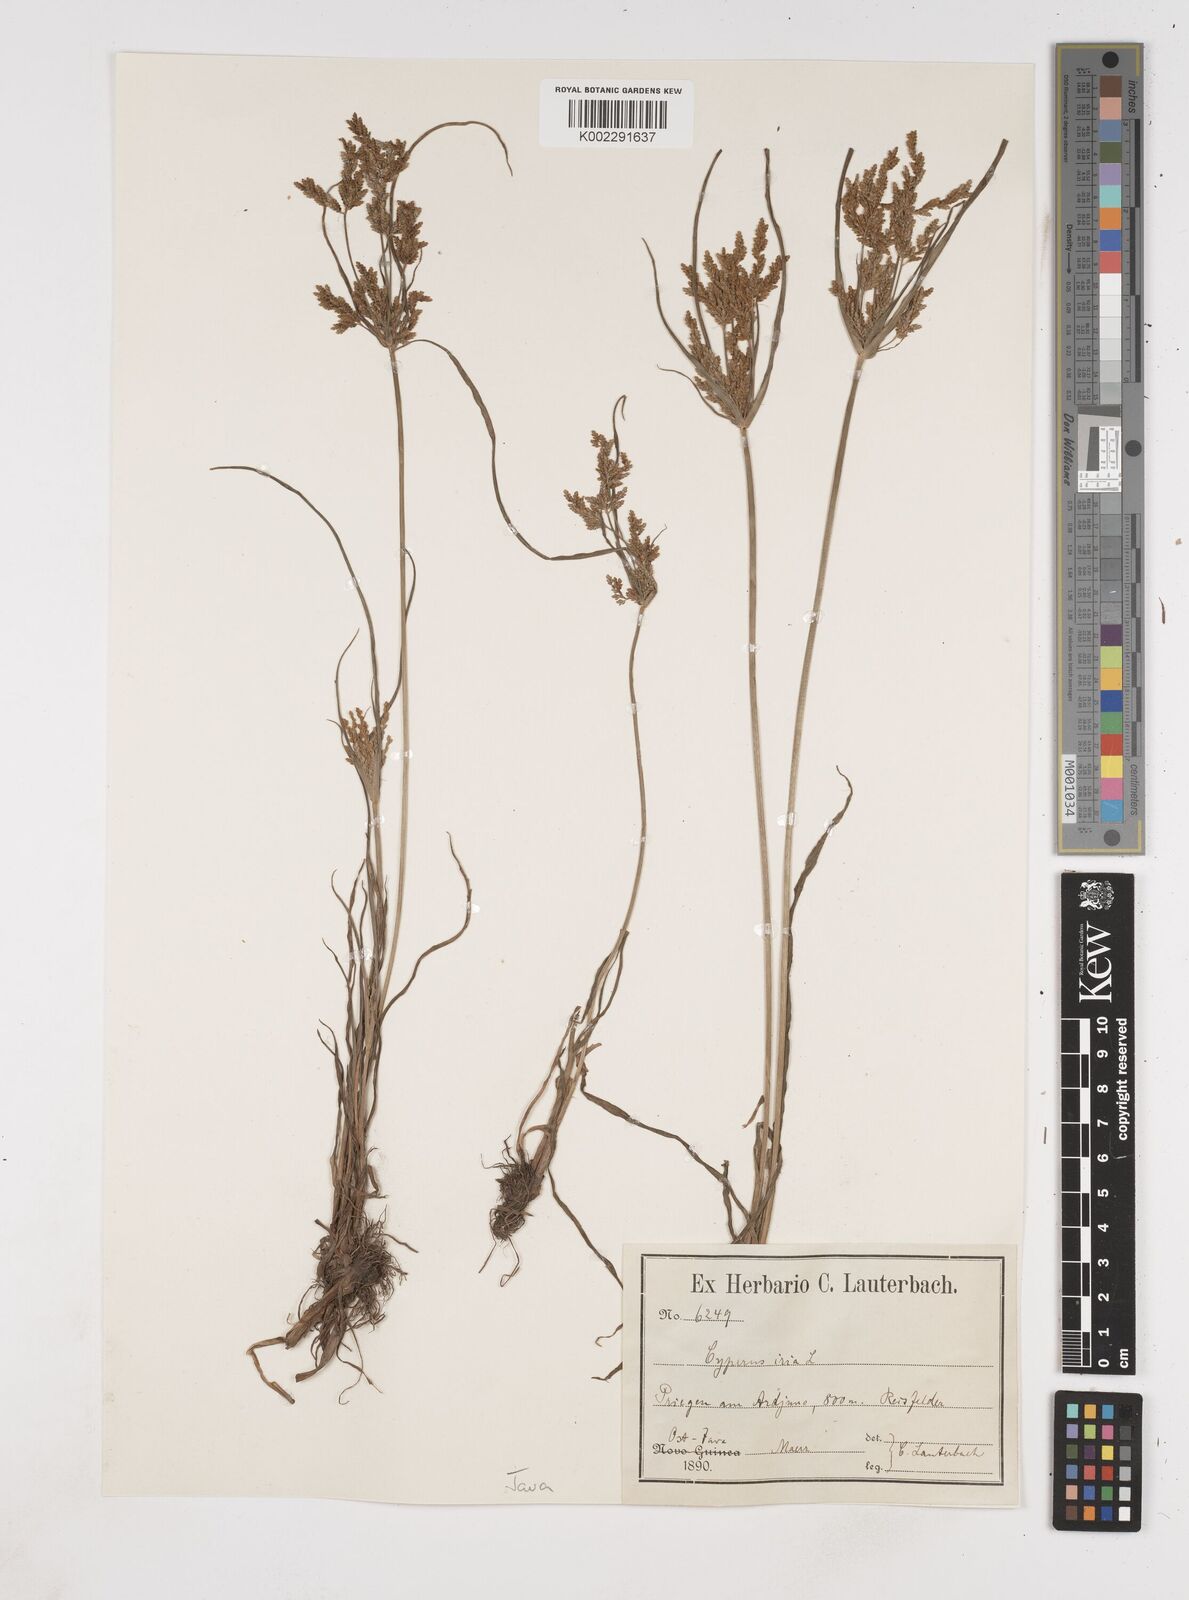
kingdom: Plantae
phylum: Tracheophyta
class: Liliopsida
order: Poales
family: Cyperaceae
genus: Cyperus
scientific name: Cyperus iria
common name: Ricefield flatsedge
